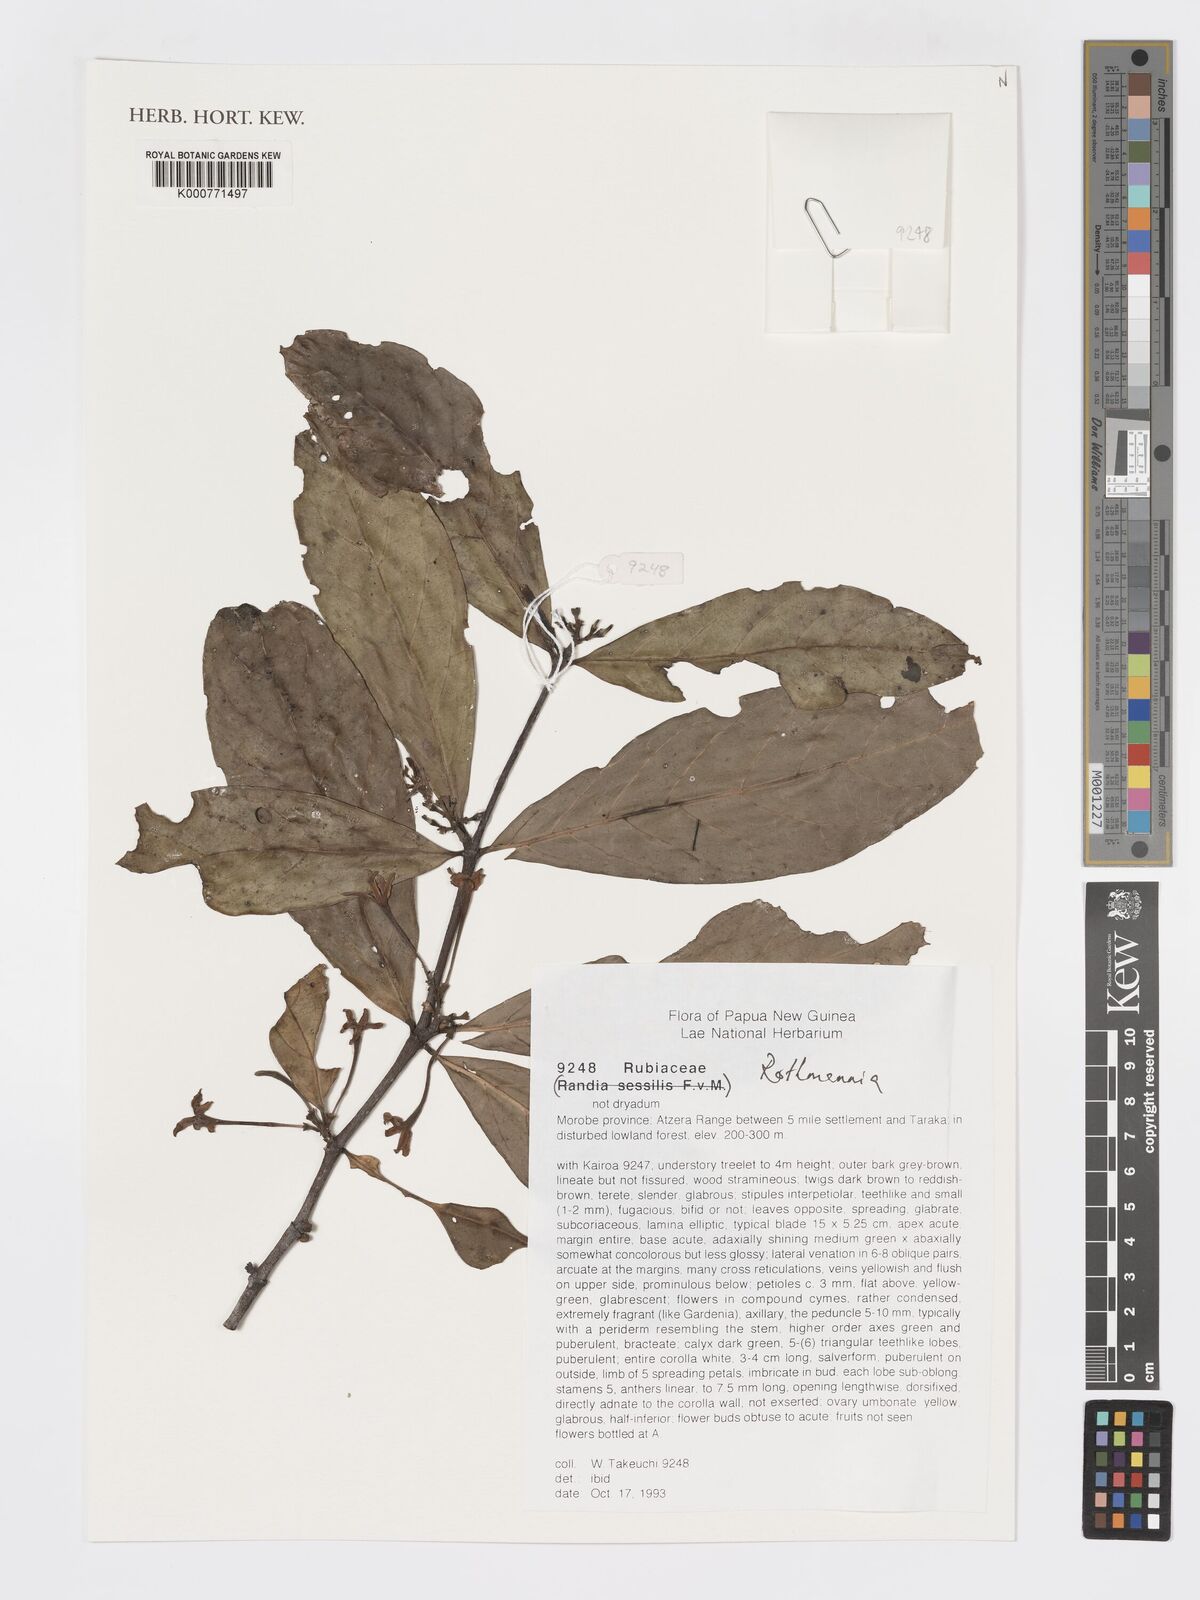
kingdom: Plantae
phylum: Tracheophyta
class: Magnoliopsida
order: Gentianales
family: Rubiaceae
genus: Ridsdalea
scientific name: Ridsdalea
